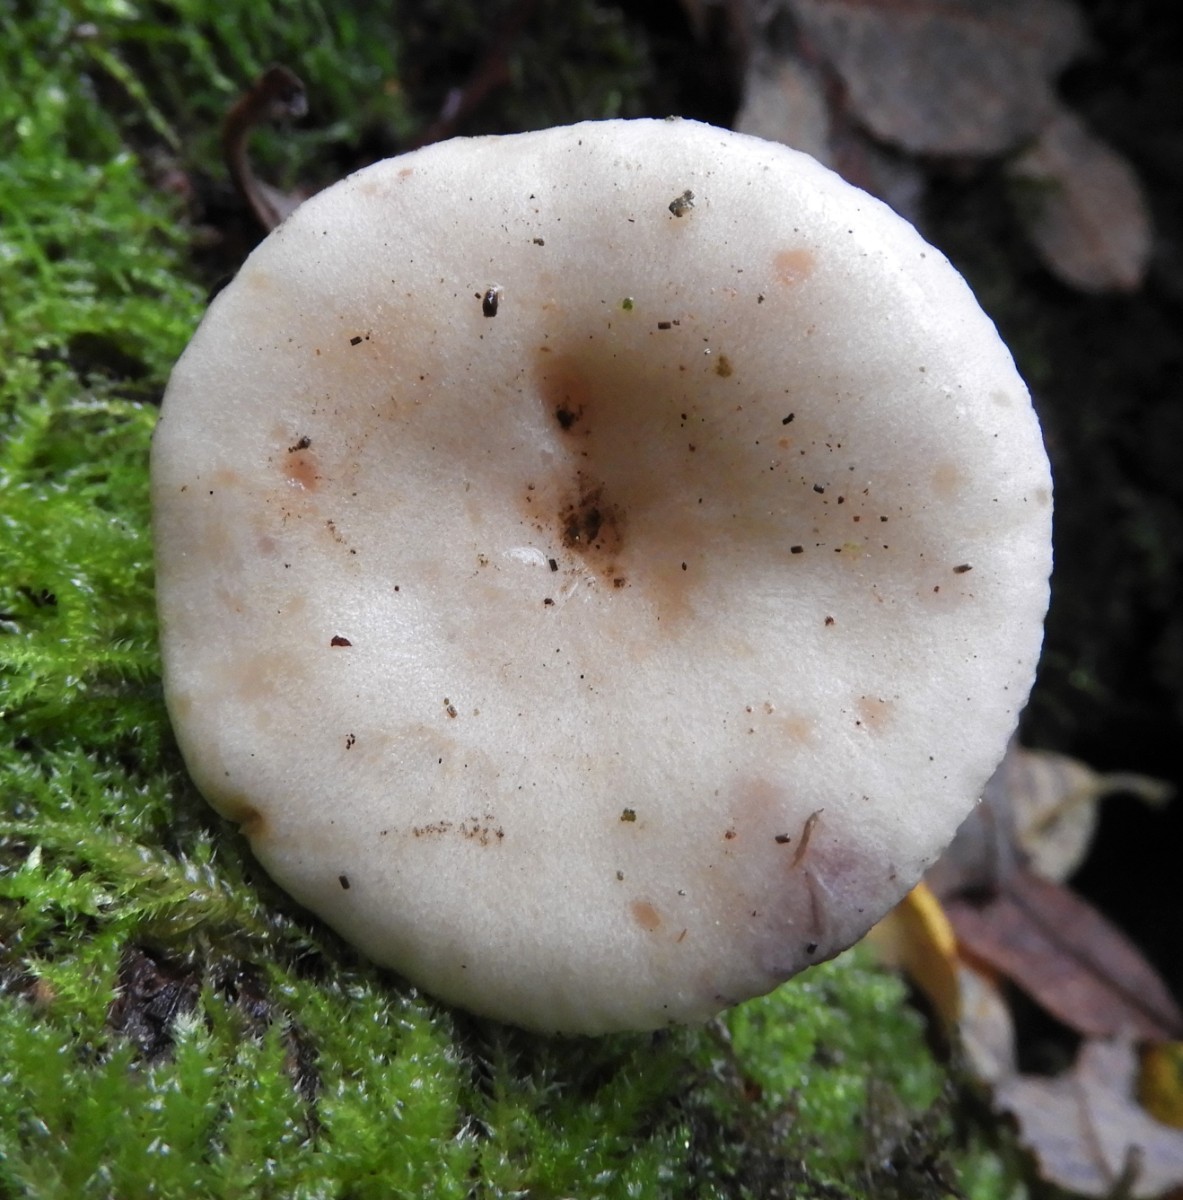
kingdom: Fungi
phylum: Basidiomycota
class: Agaricomycetes
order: Russulales
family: Russulaceae
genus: Lactarius
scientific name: Lactarius pallidus
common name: bleg mælkehat
